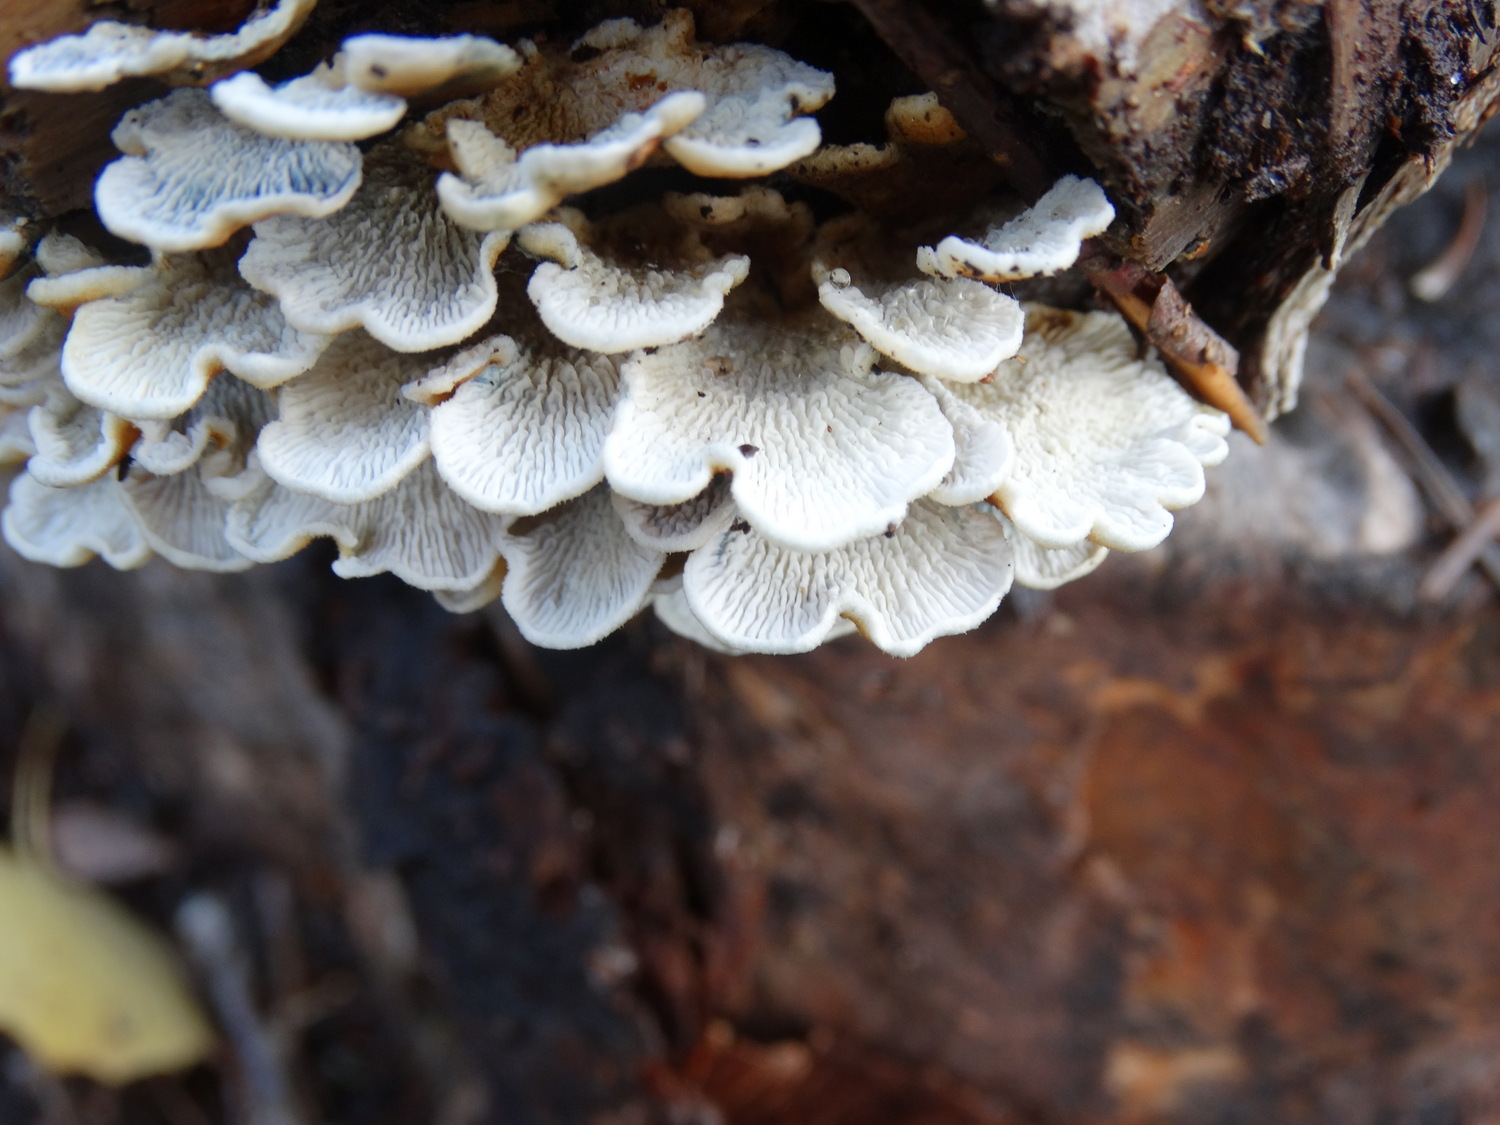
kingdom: Fungi
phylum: Basidiomycota
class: Agaricomycetes
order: Amylocorticiales
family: Amylocorticiaceae
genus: Plicaturopsis
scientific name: Plicaturopsis crispa
